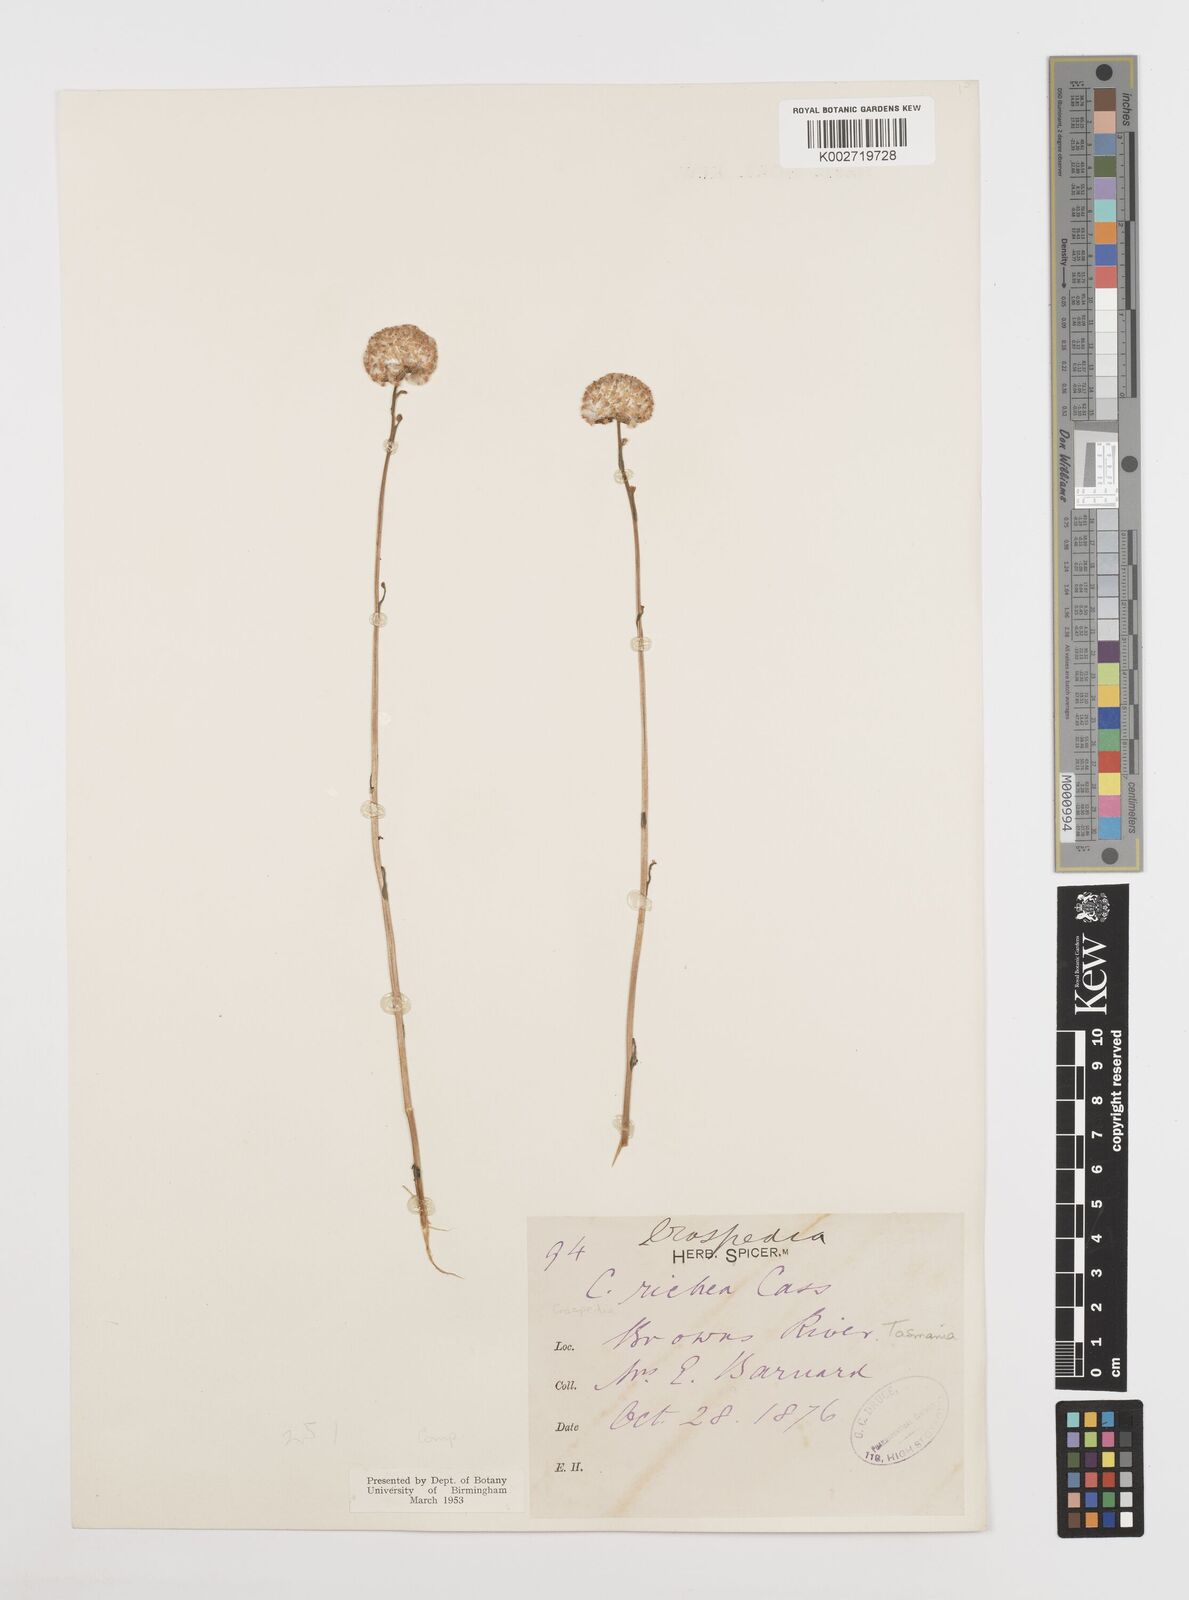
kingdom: Plantae
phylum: Tracheophyta
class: Magnoliopsida
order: Asterales
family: Asteraceae
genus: Craspedia
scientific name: Craspedia glauca
